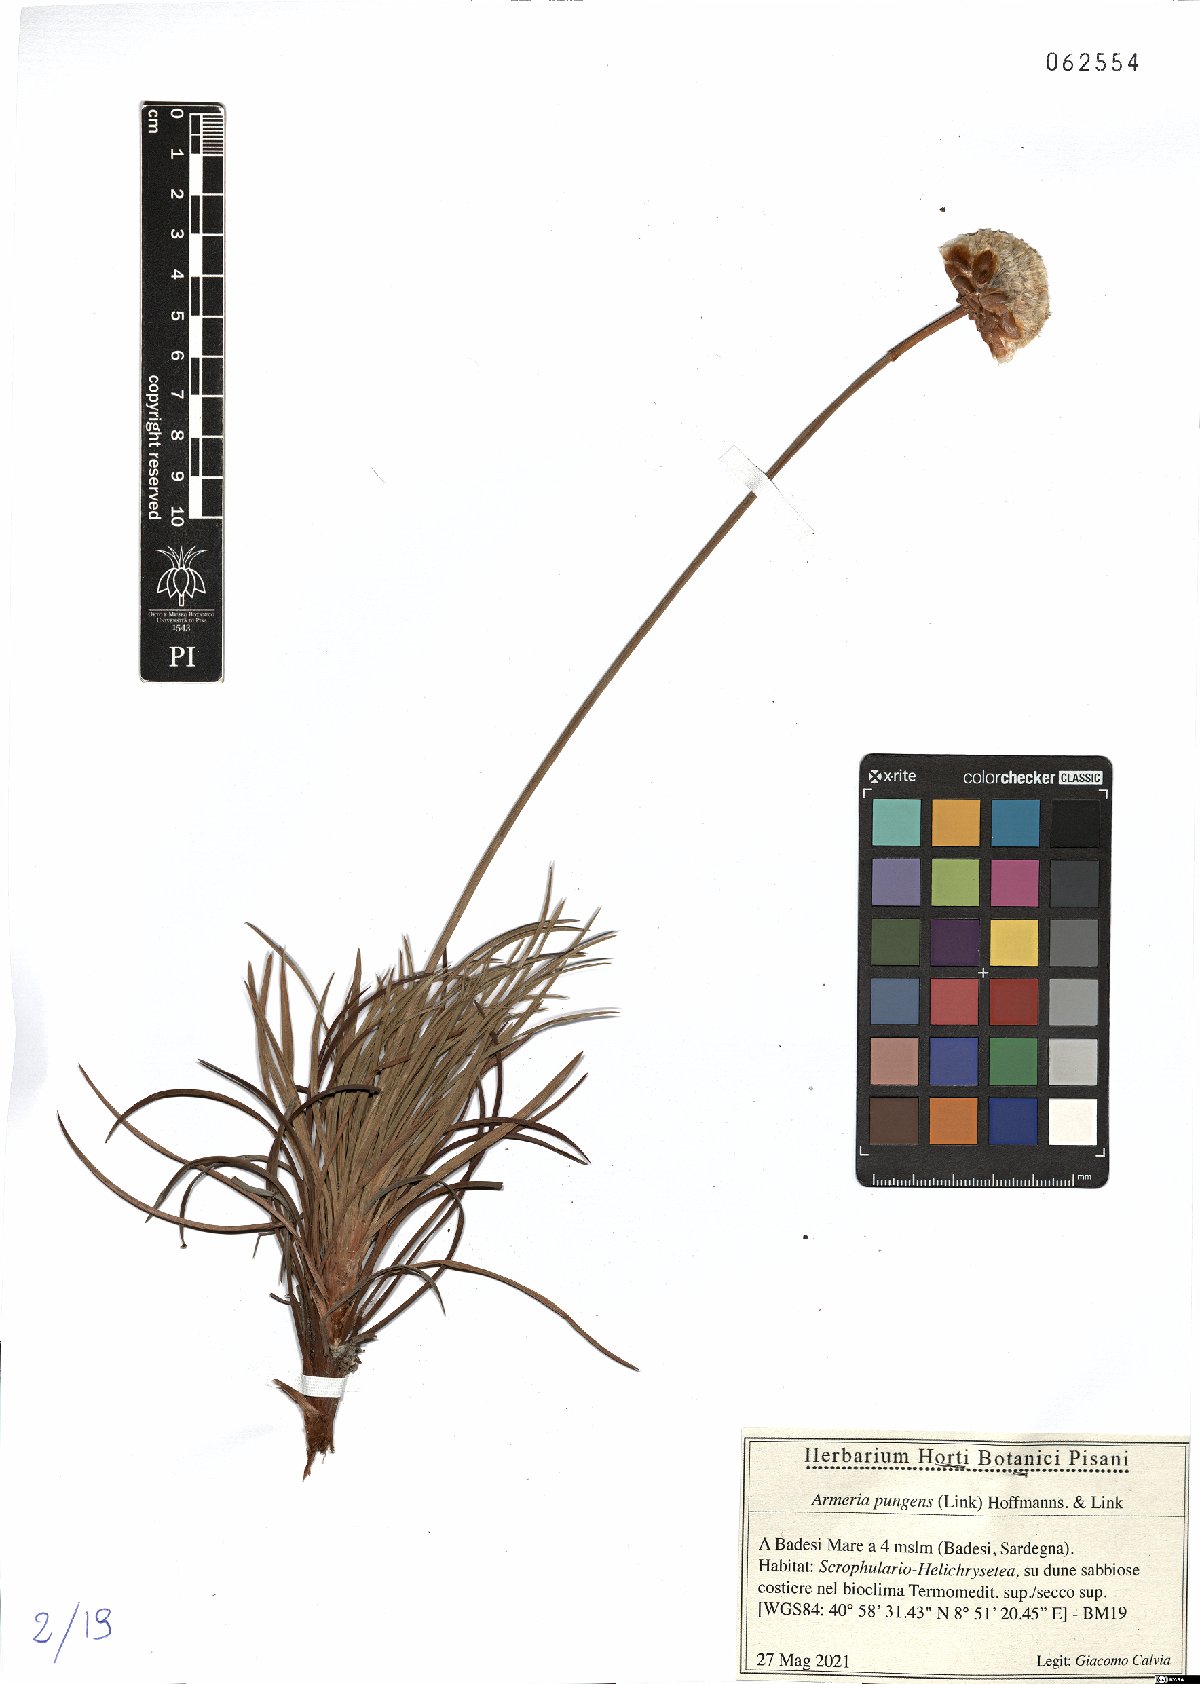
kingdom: Plantae
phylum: Tracheophyta
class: Magnoliopsida
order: Caryophyllales
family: Plumbaginaceae
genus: Armeria
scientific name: Armeria pungens
